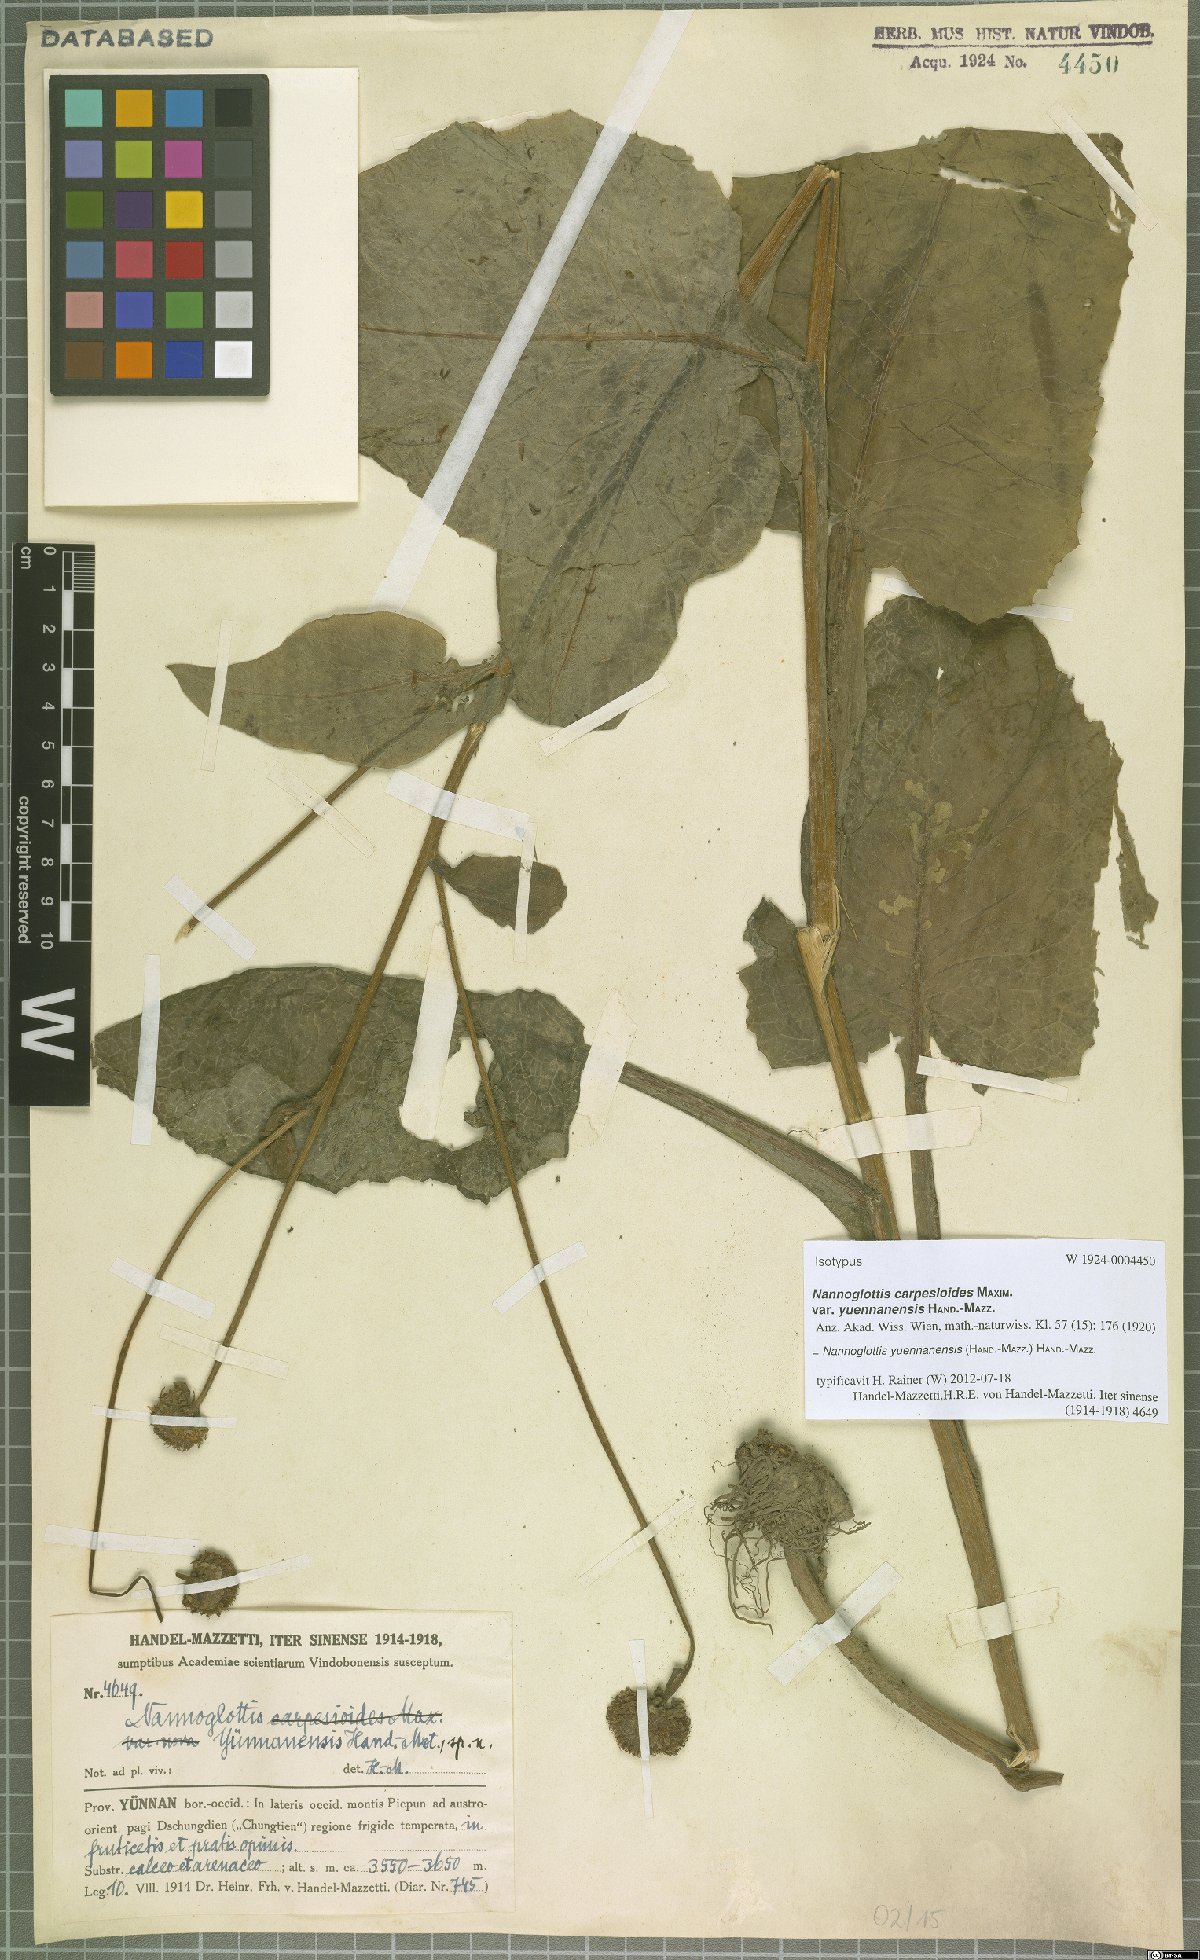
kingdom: Plantae
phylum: Tracheophyta
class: Magnoliopsida
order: Asterales
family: Asteraceae
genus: Nannoglottis
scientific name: Nannoglottis yuennanensis
